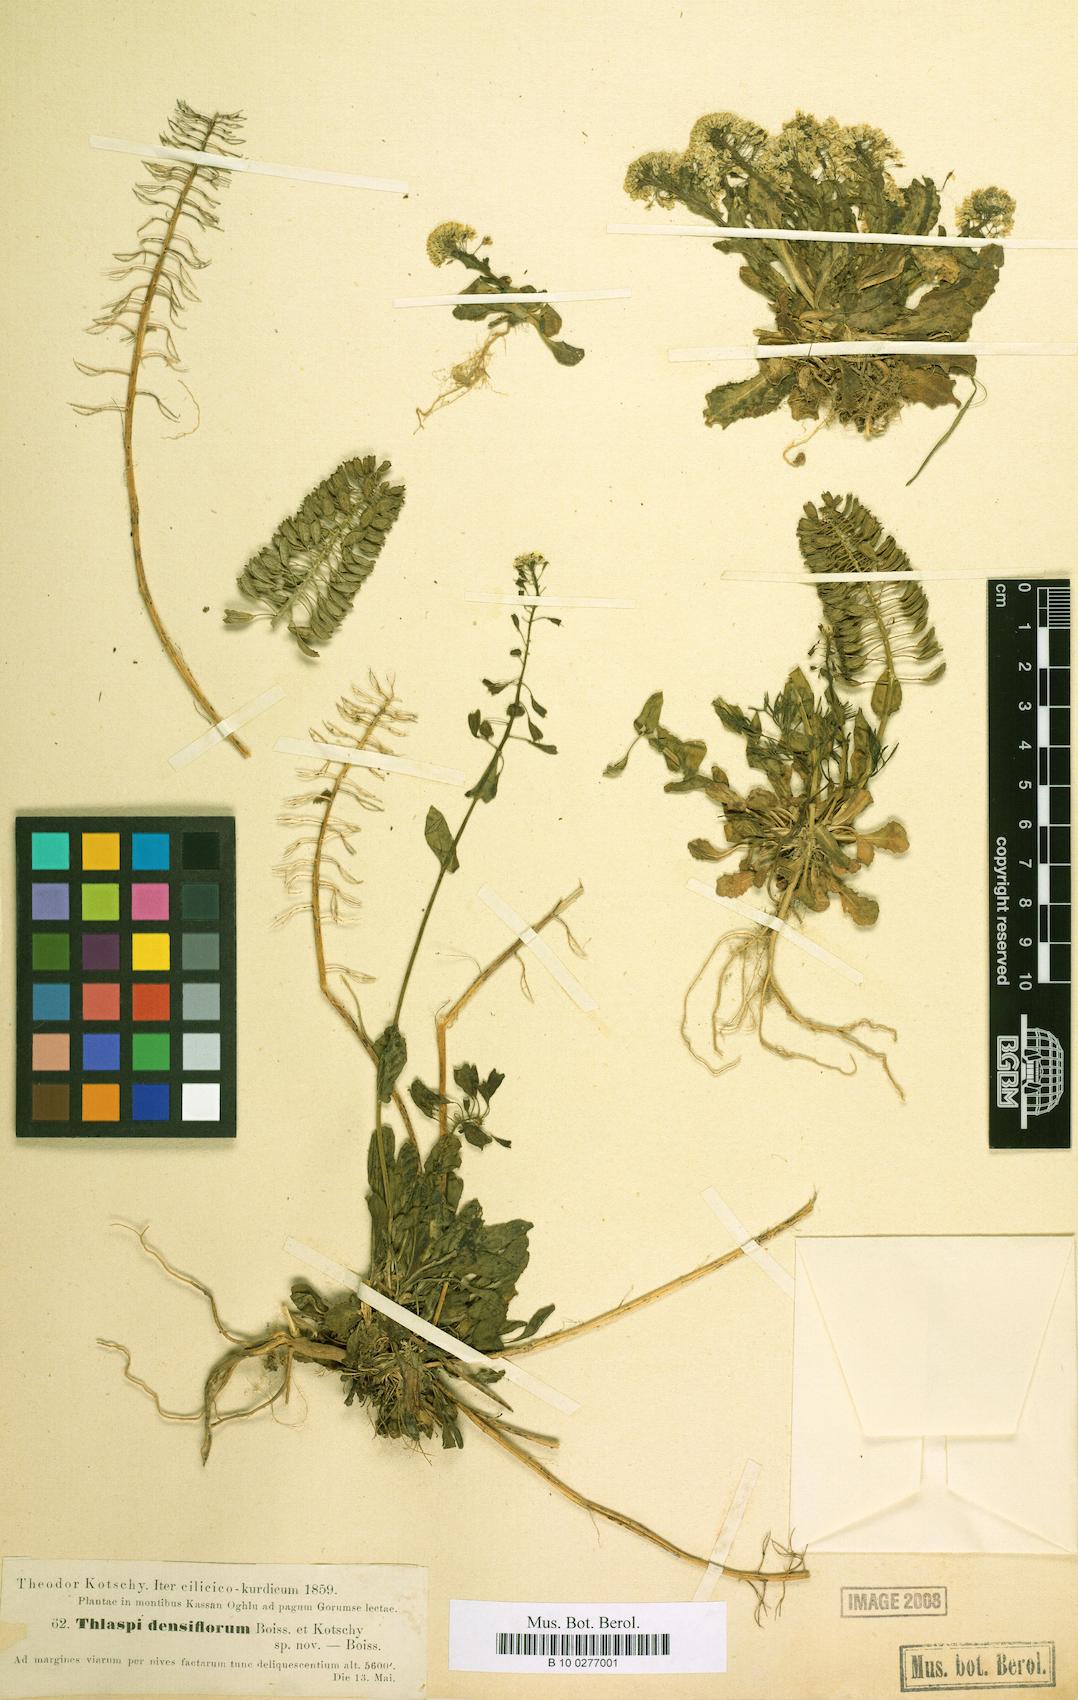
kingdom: Plantae
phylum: Tracheophyta
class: Magnoliopsida
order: Brassicales
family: Brassicaceae
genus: Noccaea
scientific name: Noccaea densiflora
